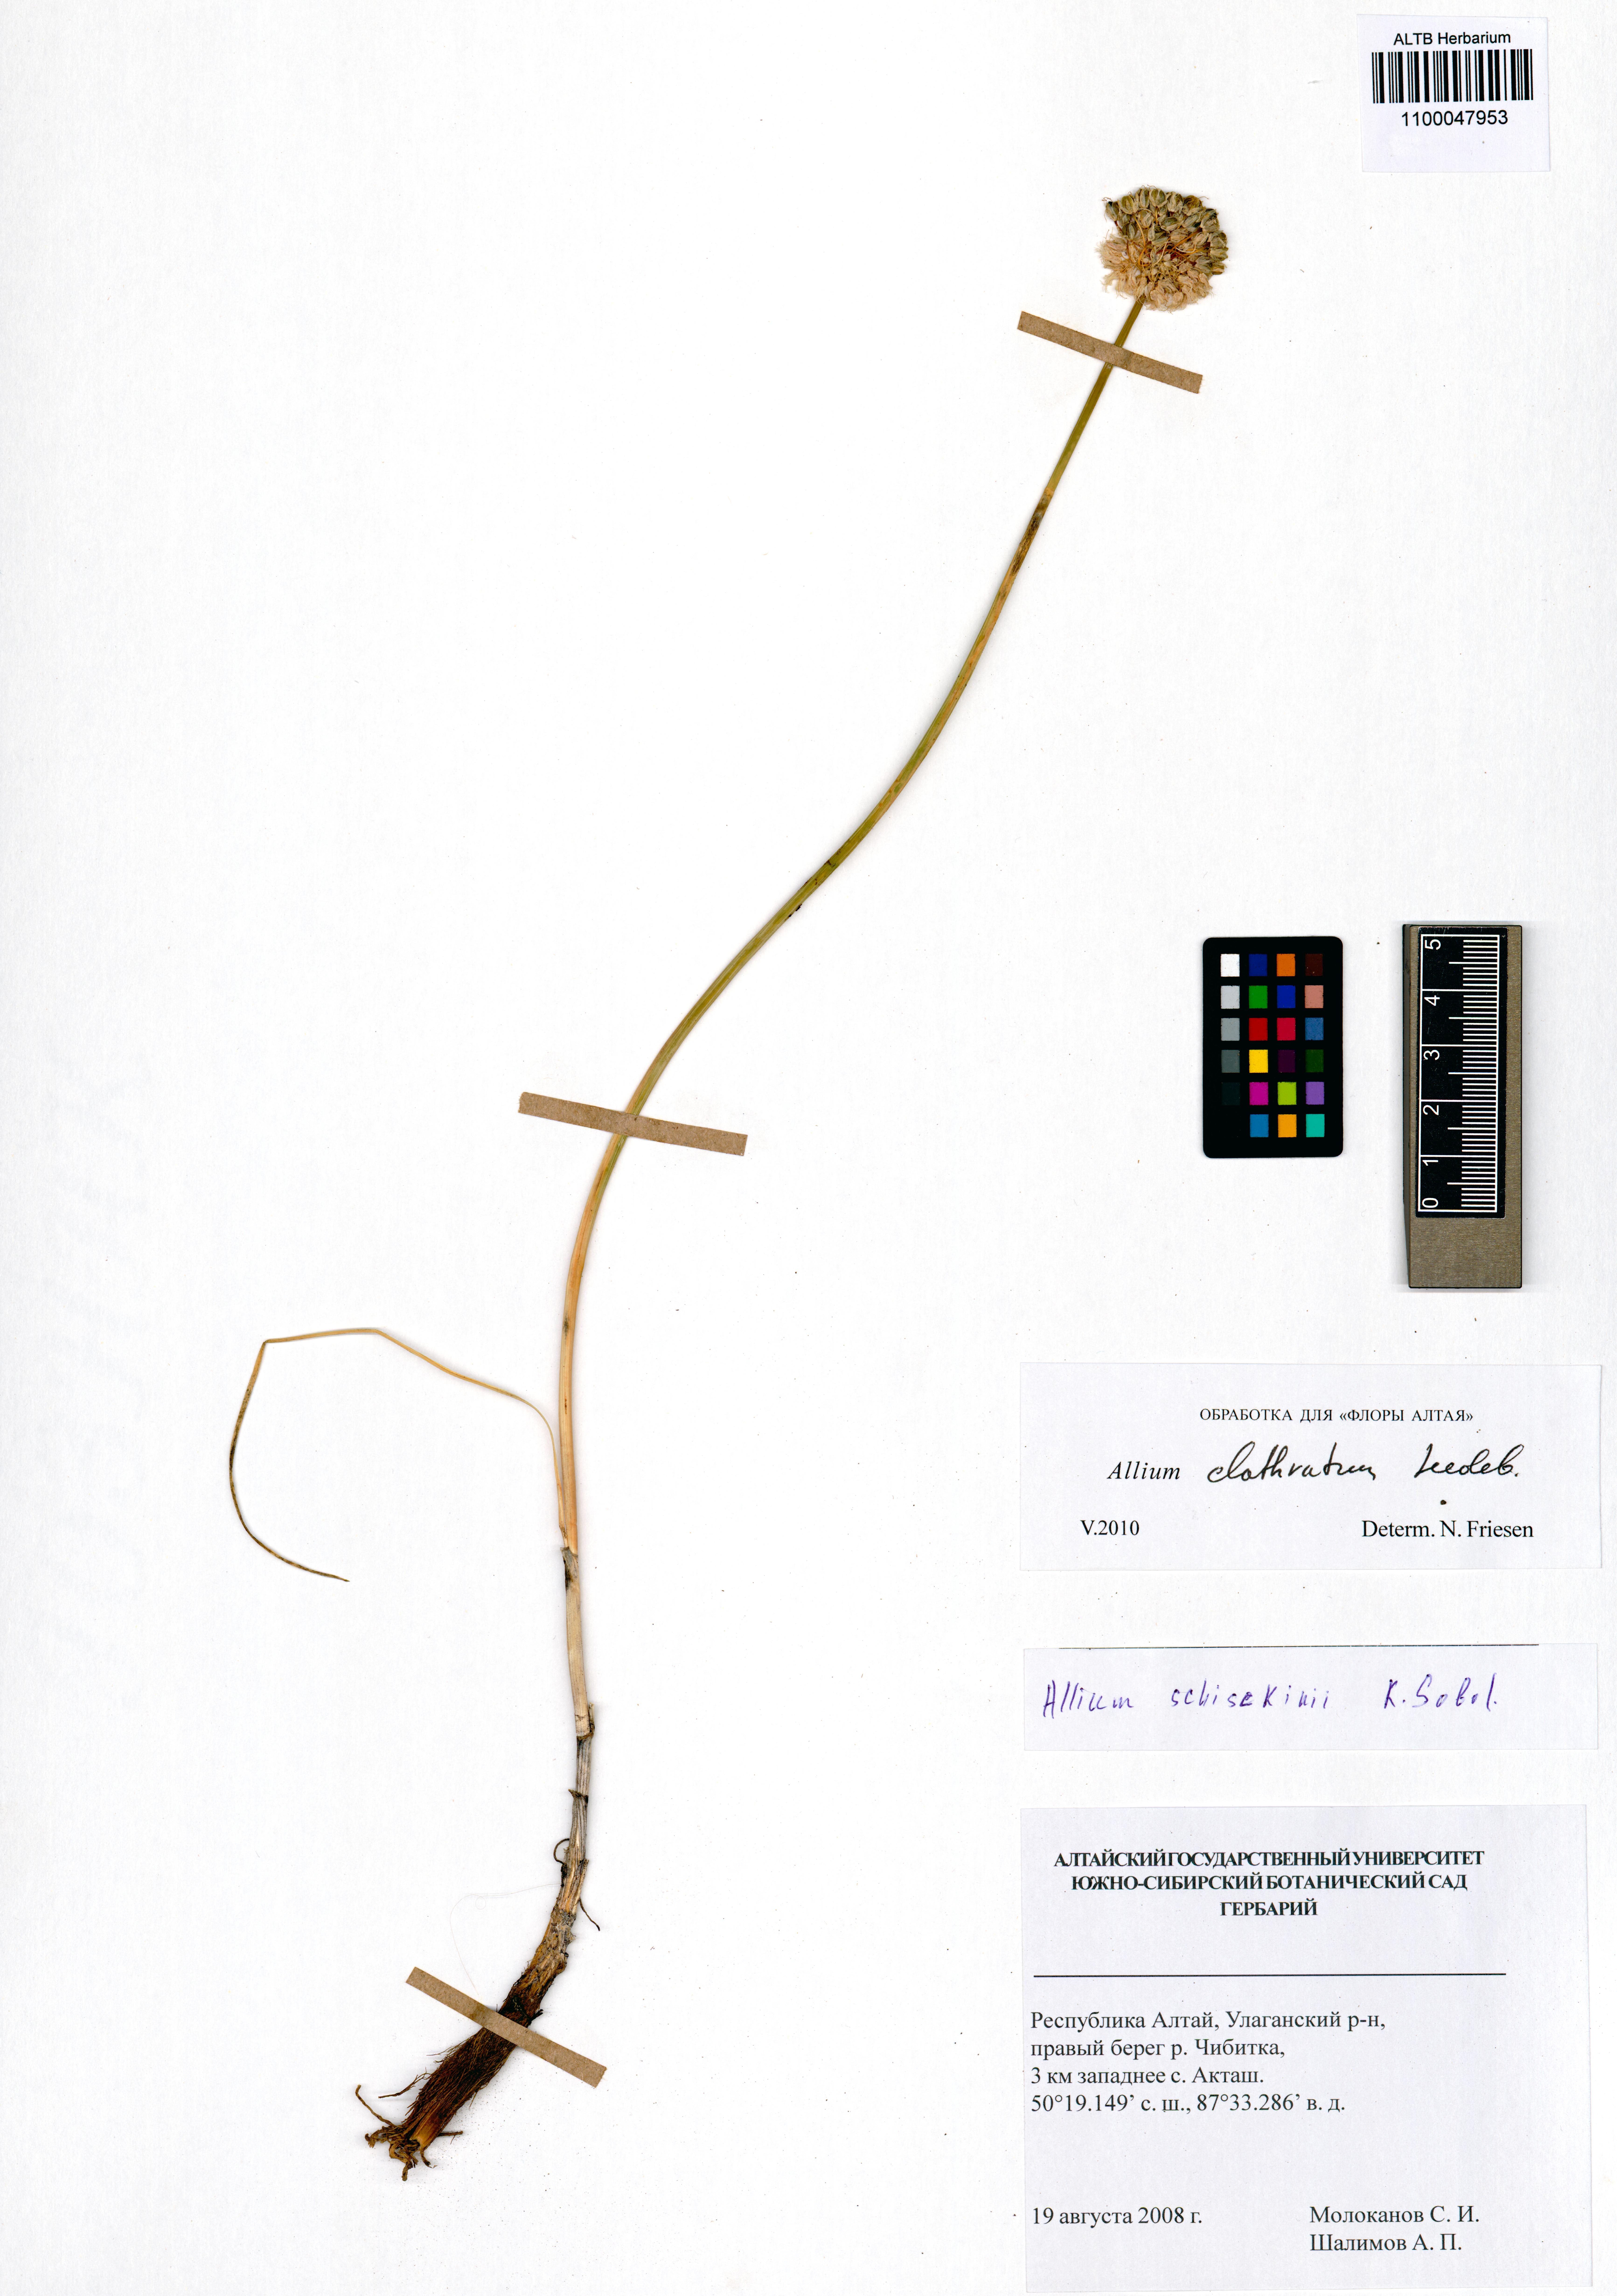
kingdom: Plantae
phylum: Tracheophyta
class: Liliopsida
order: Asparagales
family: Amaryllidaceae
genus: Allium
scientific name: Allium clathratum
